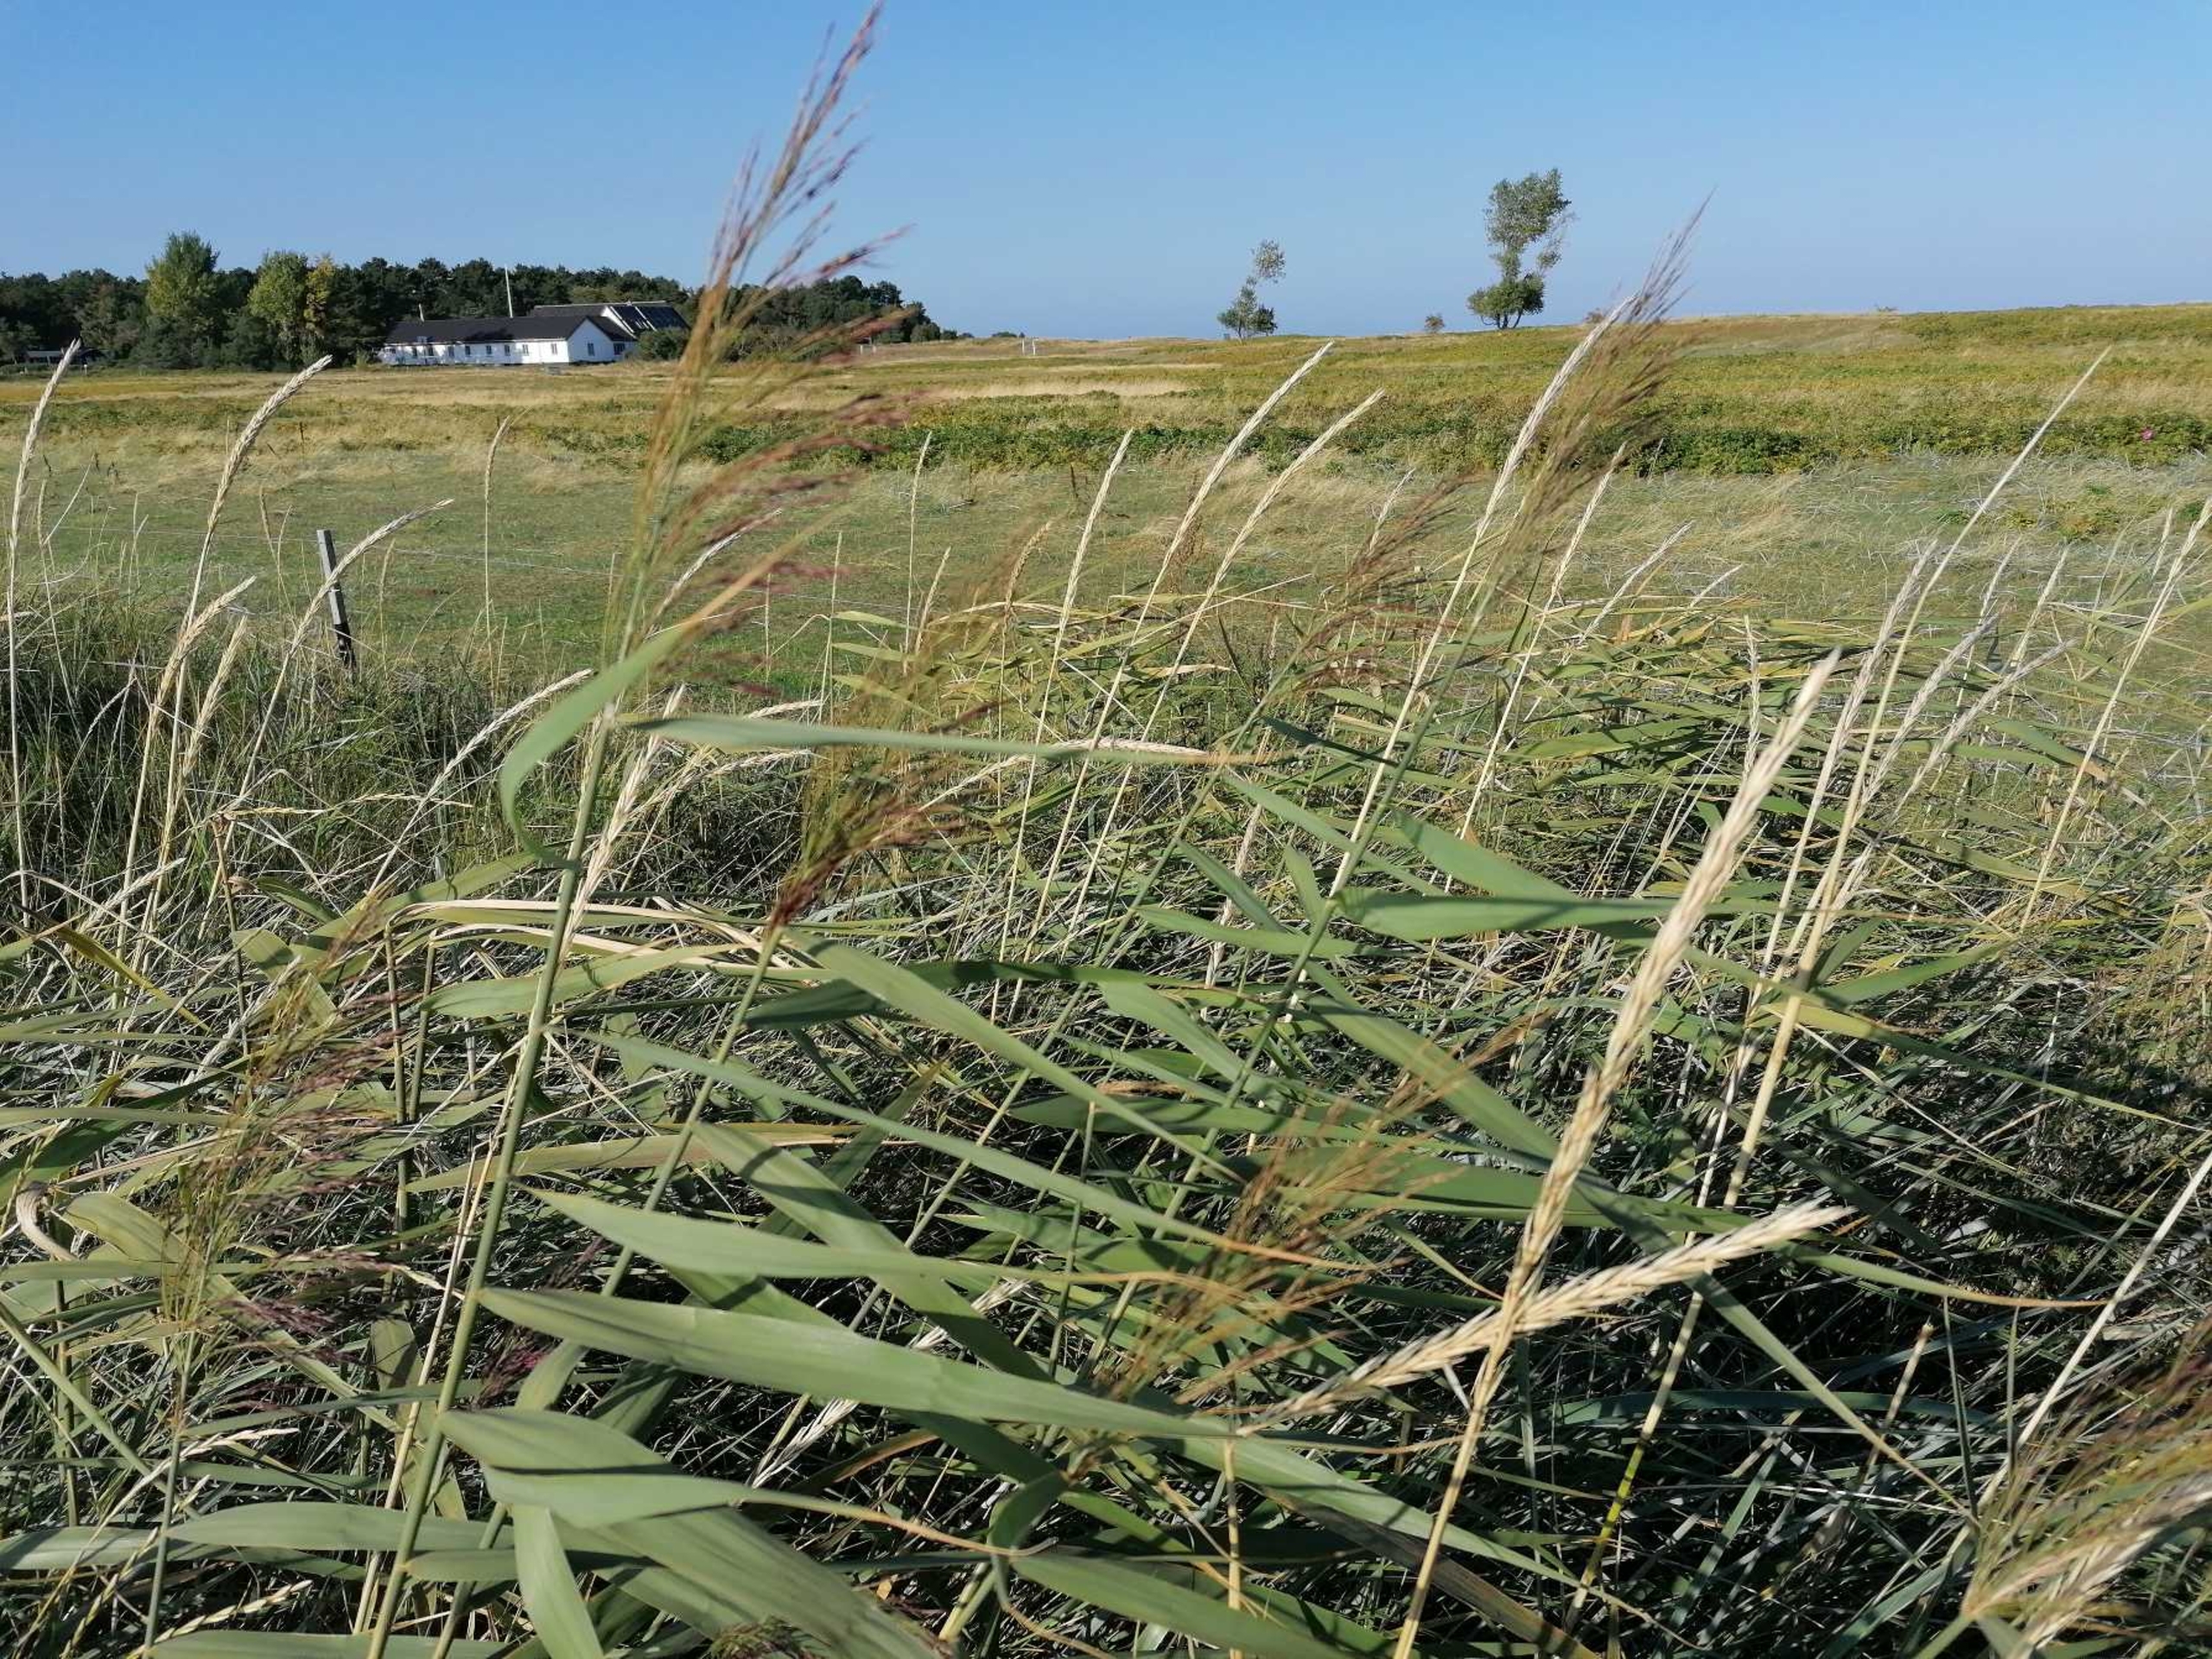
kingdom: Plantae
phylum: Tracheophyta
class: Liliopsida
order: Poales
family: Poaceae
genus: Phragmites
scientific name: Phragmites australis
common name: Tagrør
